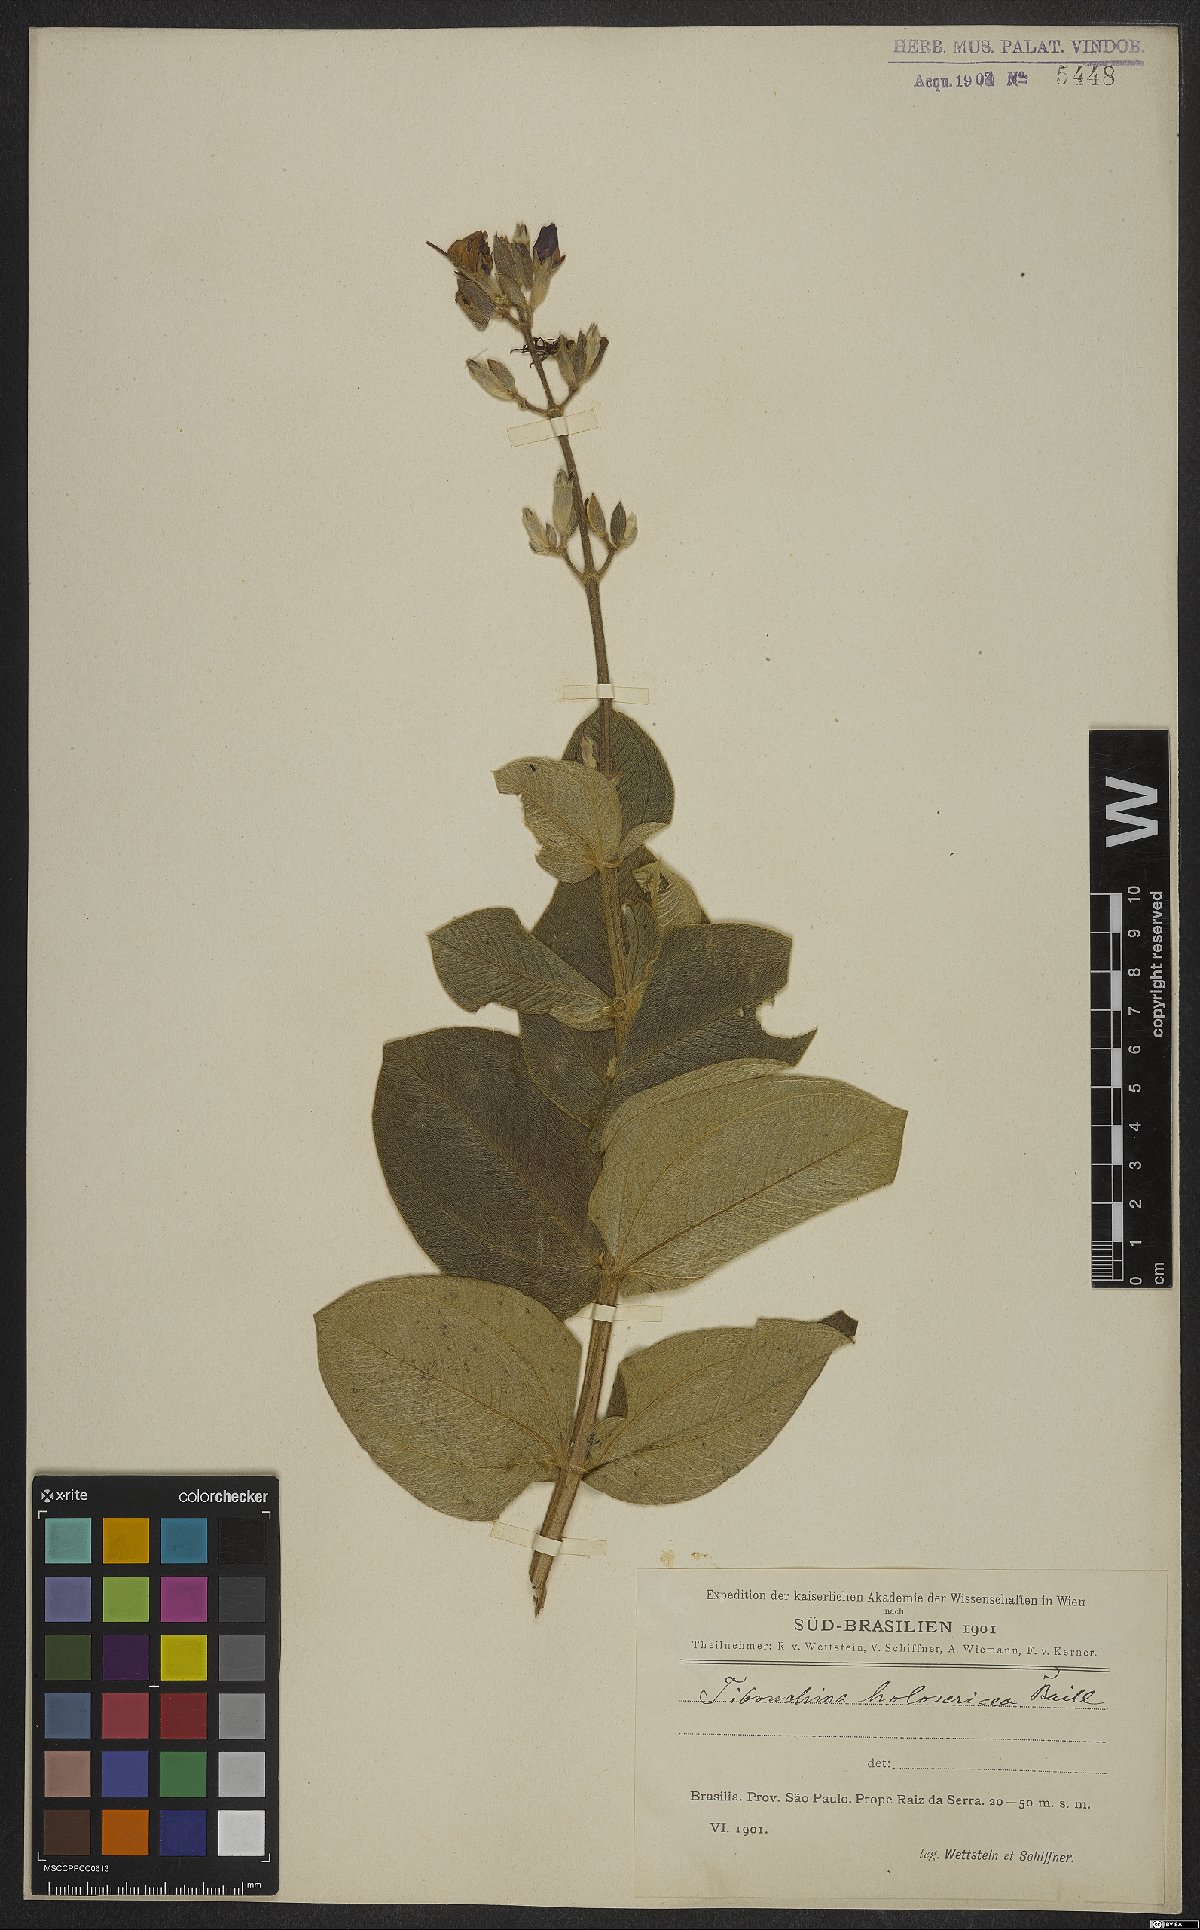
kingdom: Plantae
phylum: Tracheophyta
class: Magnoliopsida
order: Myrtales
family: Melastomataceae
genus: Pleroma
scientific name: Pleroma clavatum
